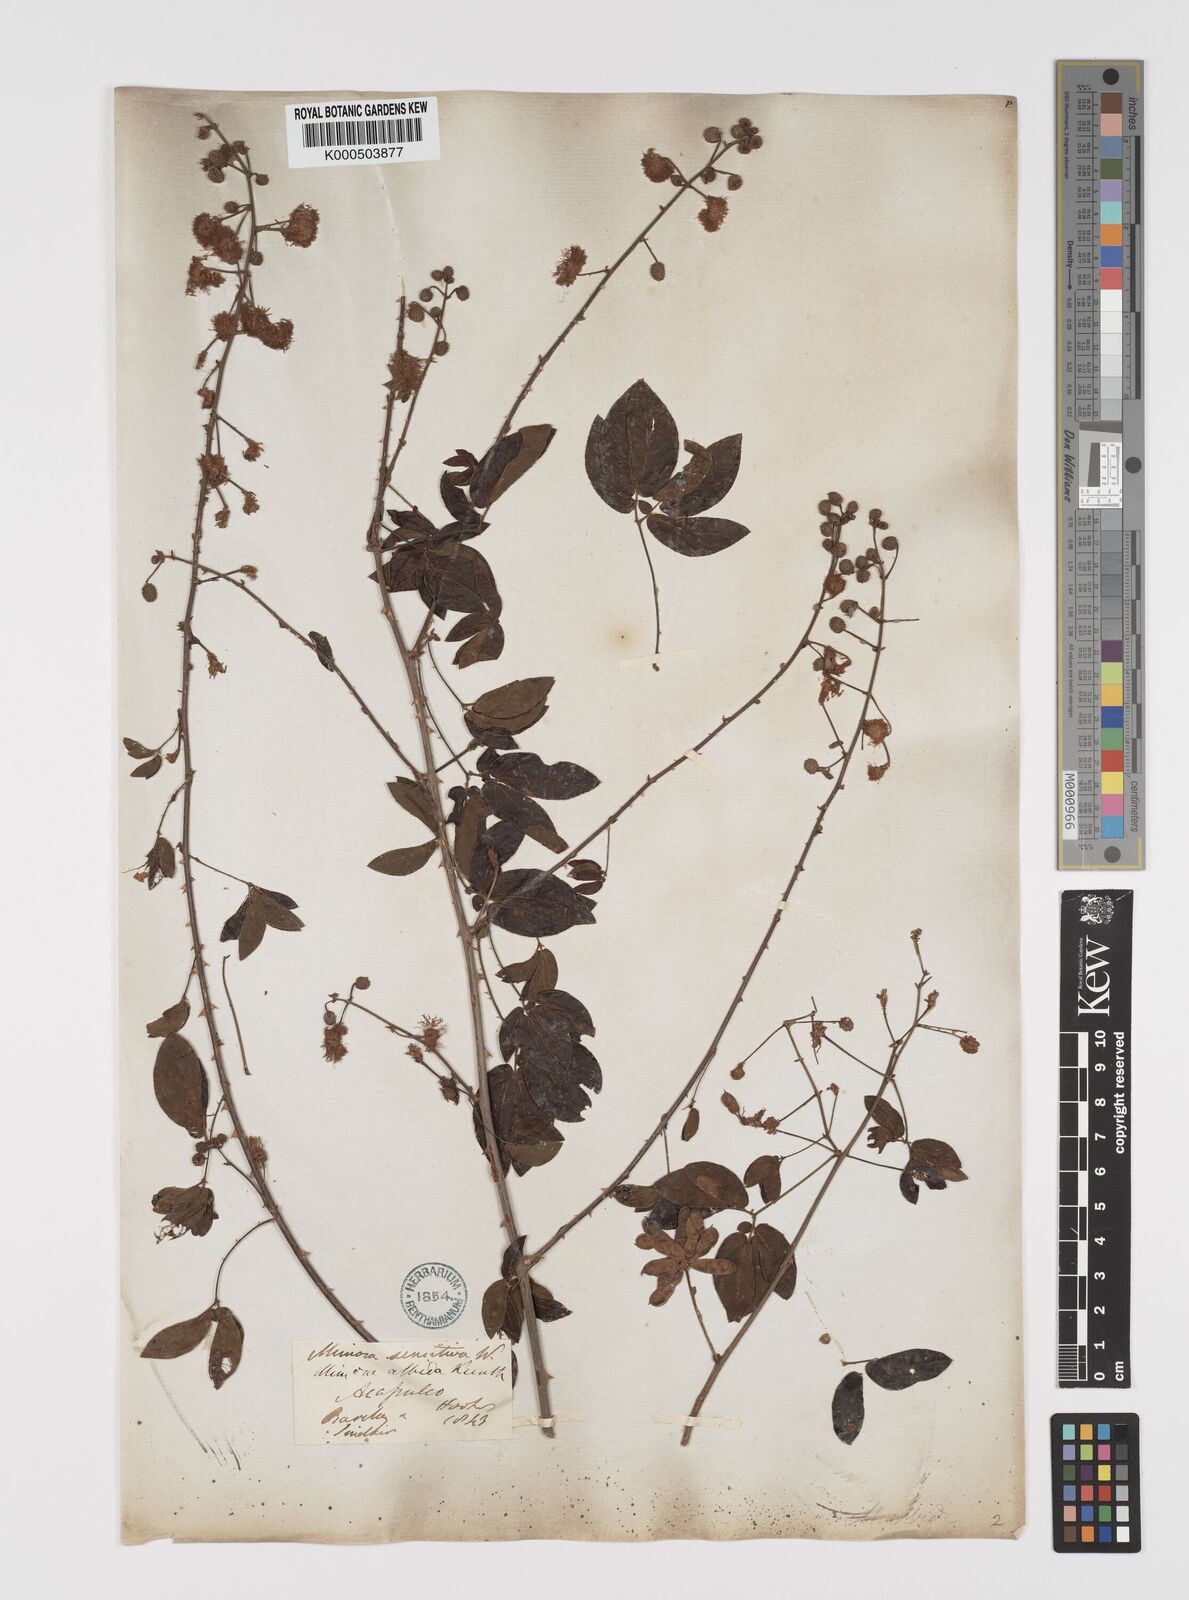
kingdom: Plantae
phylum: Tracheophyta
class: Magnoliopsida
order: Fabales
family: Fabaceae
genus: Mimosa
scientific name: Mimosa sensitiva
